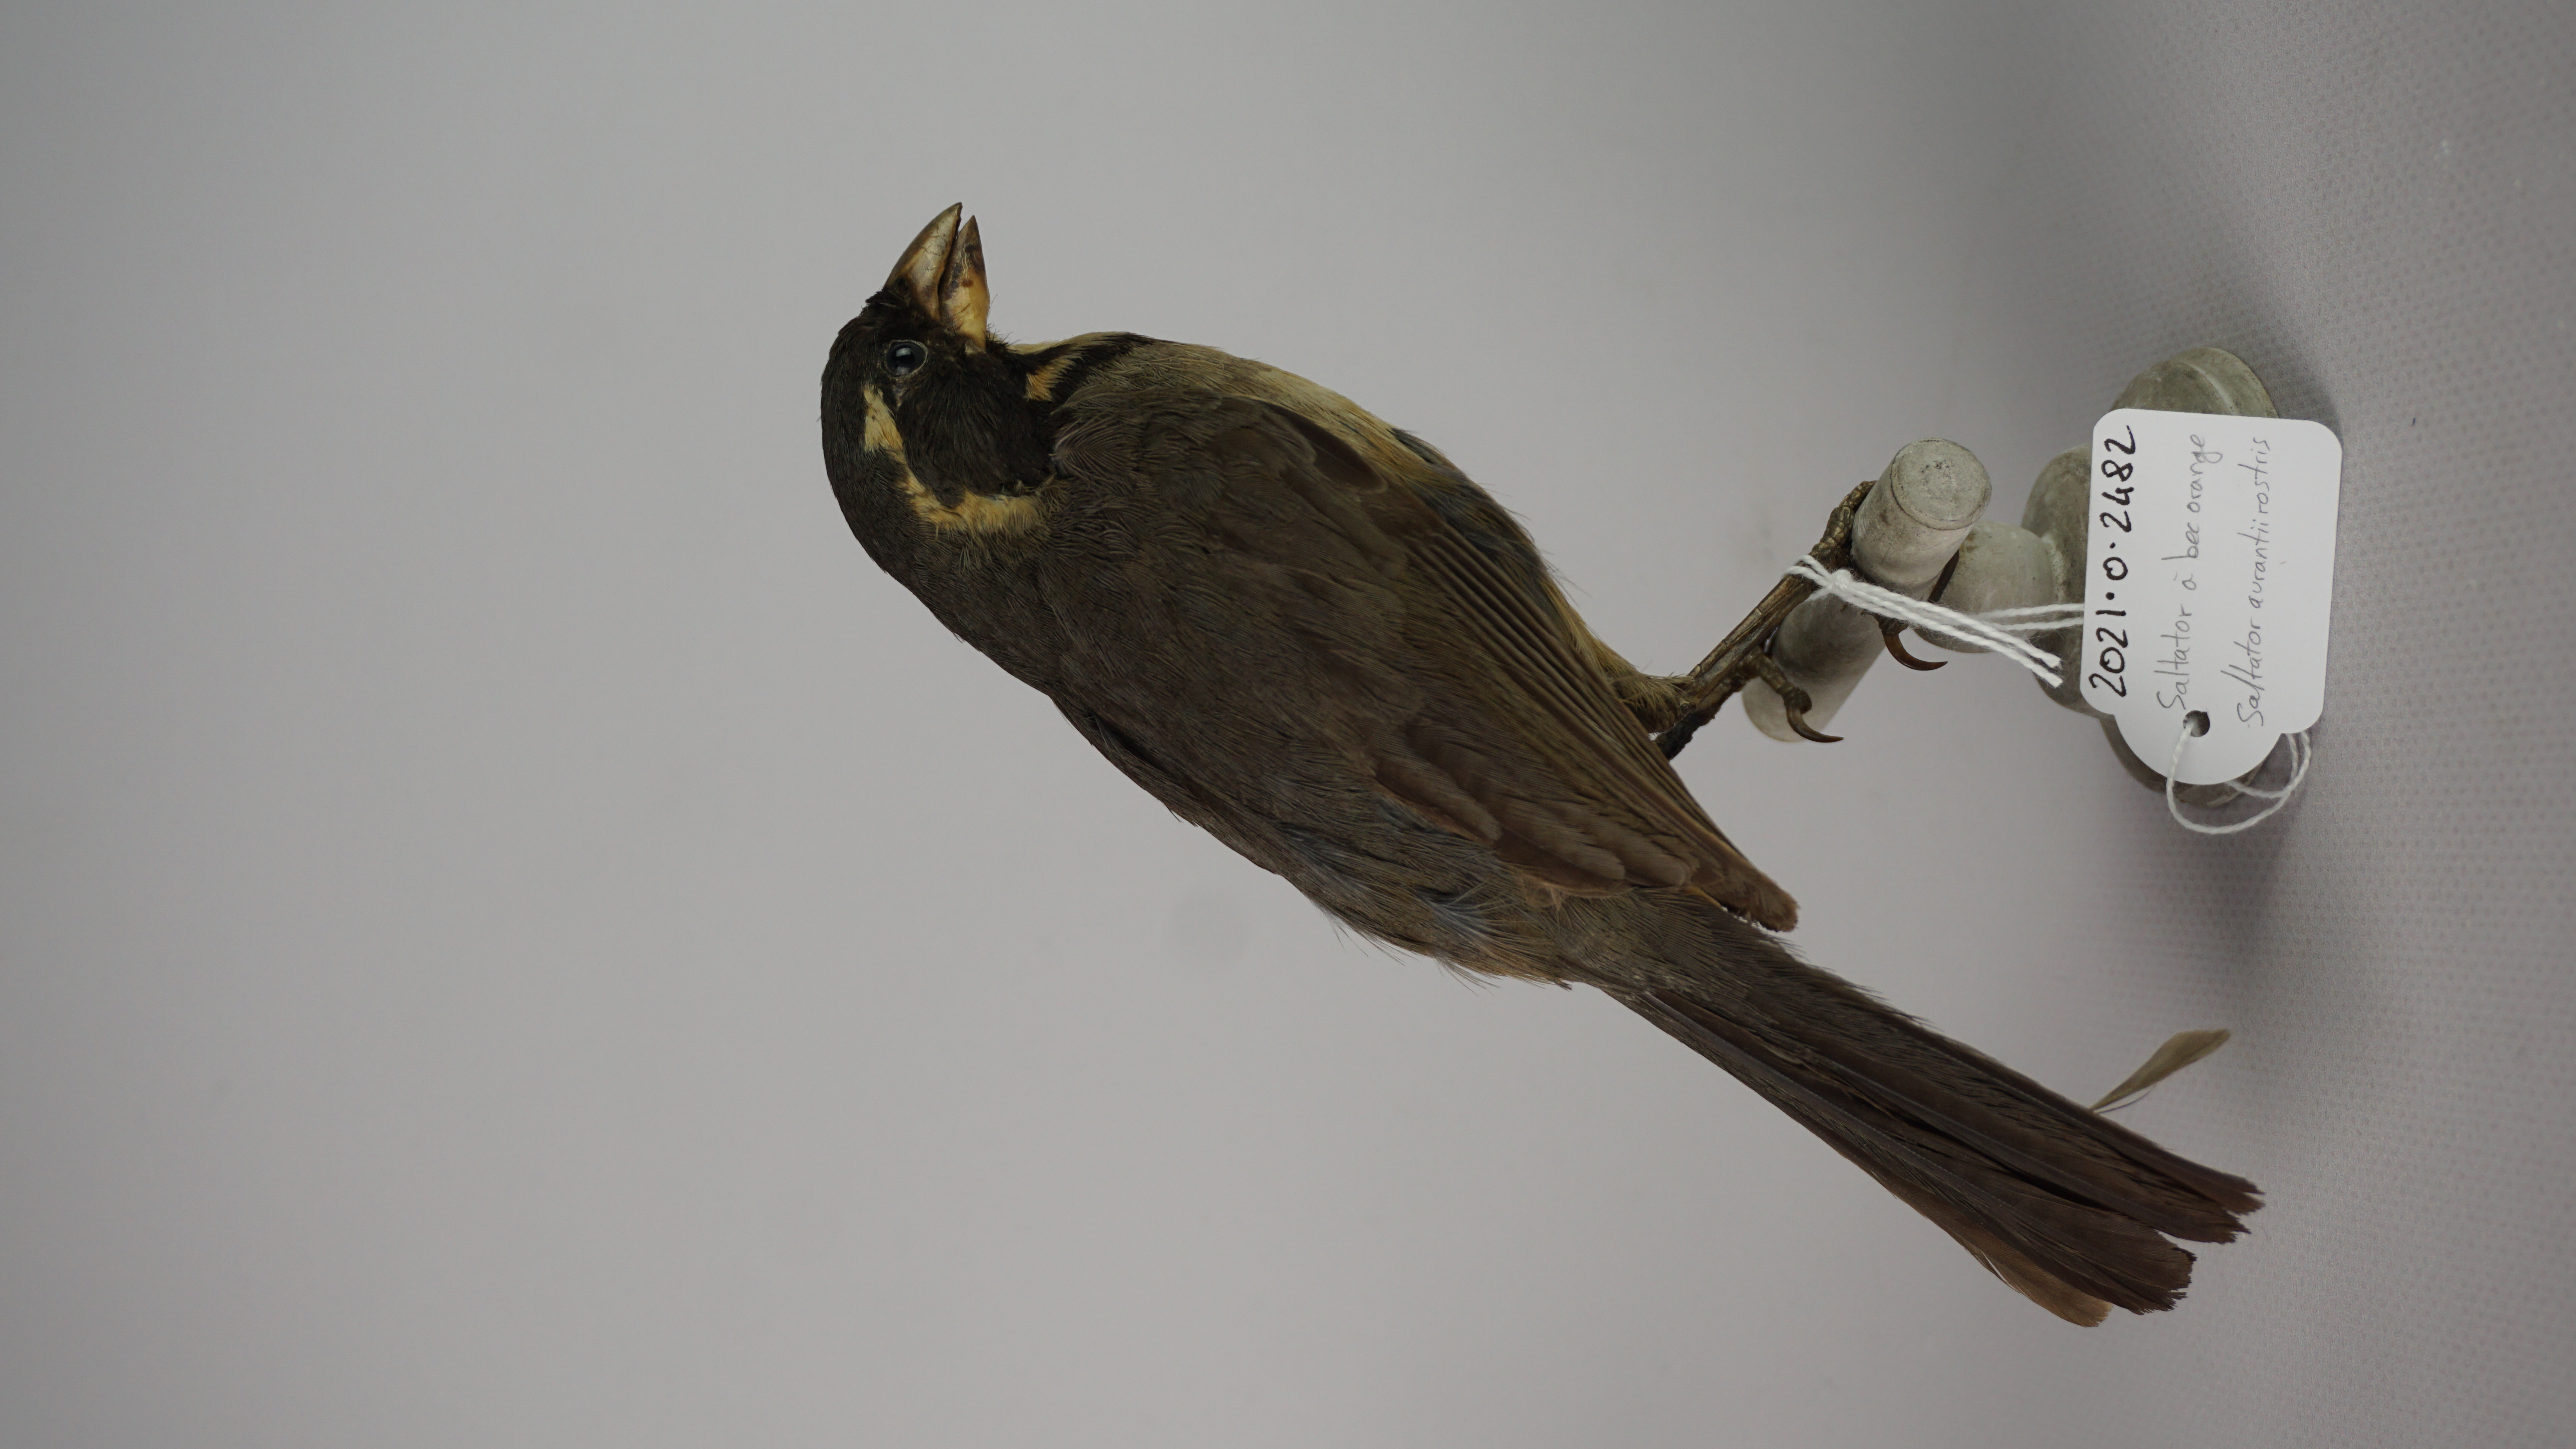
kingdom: Animalia
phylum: Chordata
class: Aves
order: Passeriformes
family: Thraupidae
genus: Saltator
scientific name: Saltator aurantiirostris
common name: Golden-billed saltator
